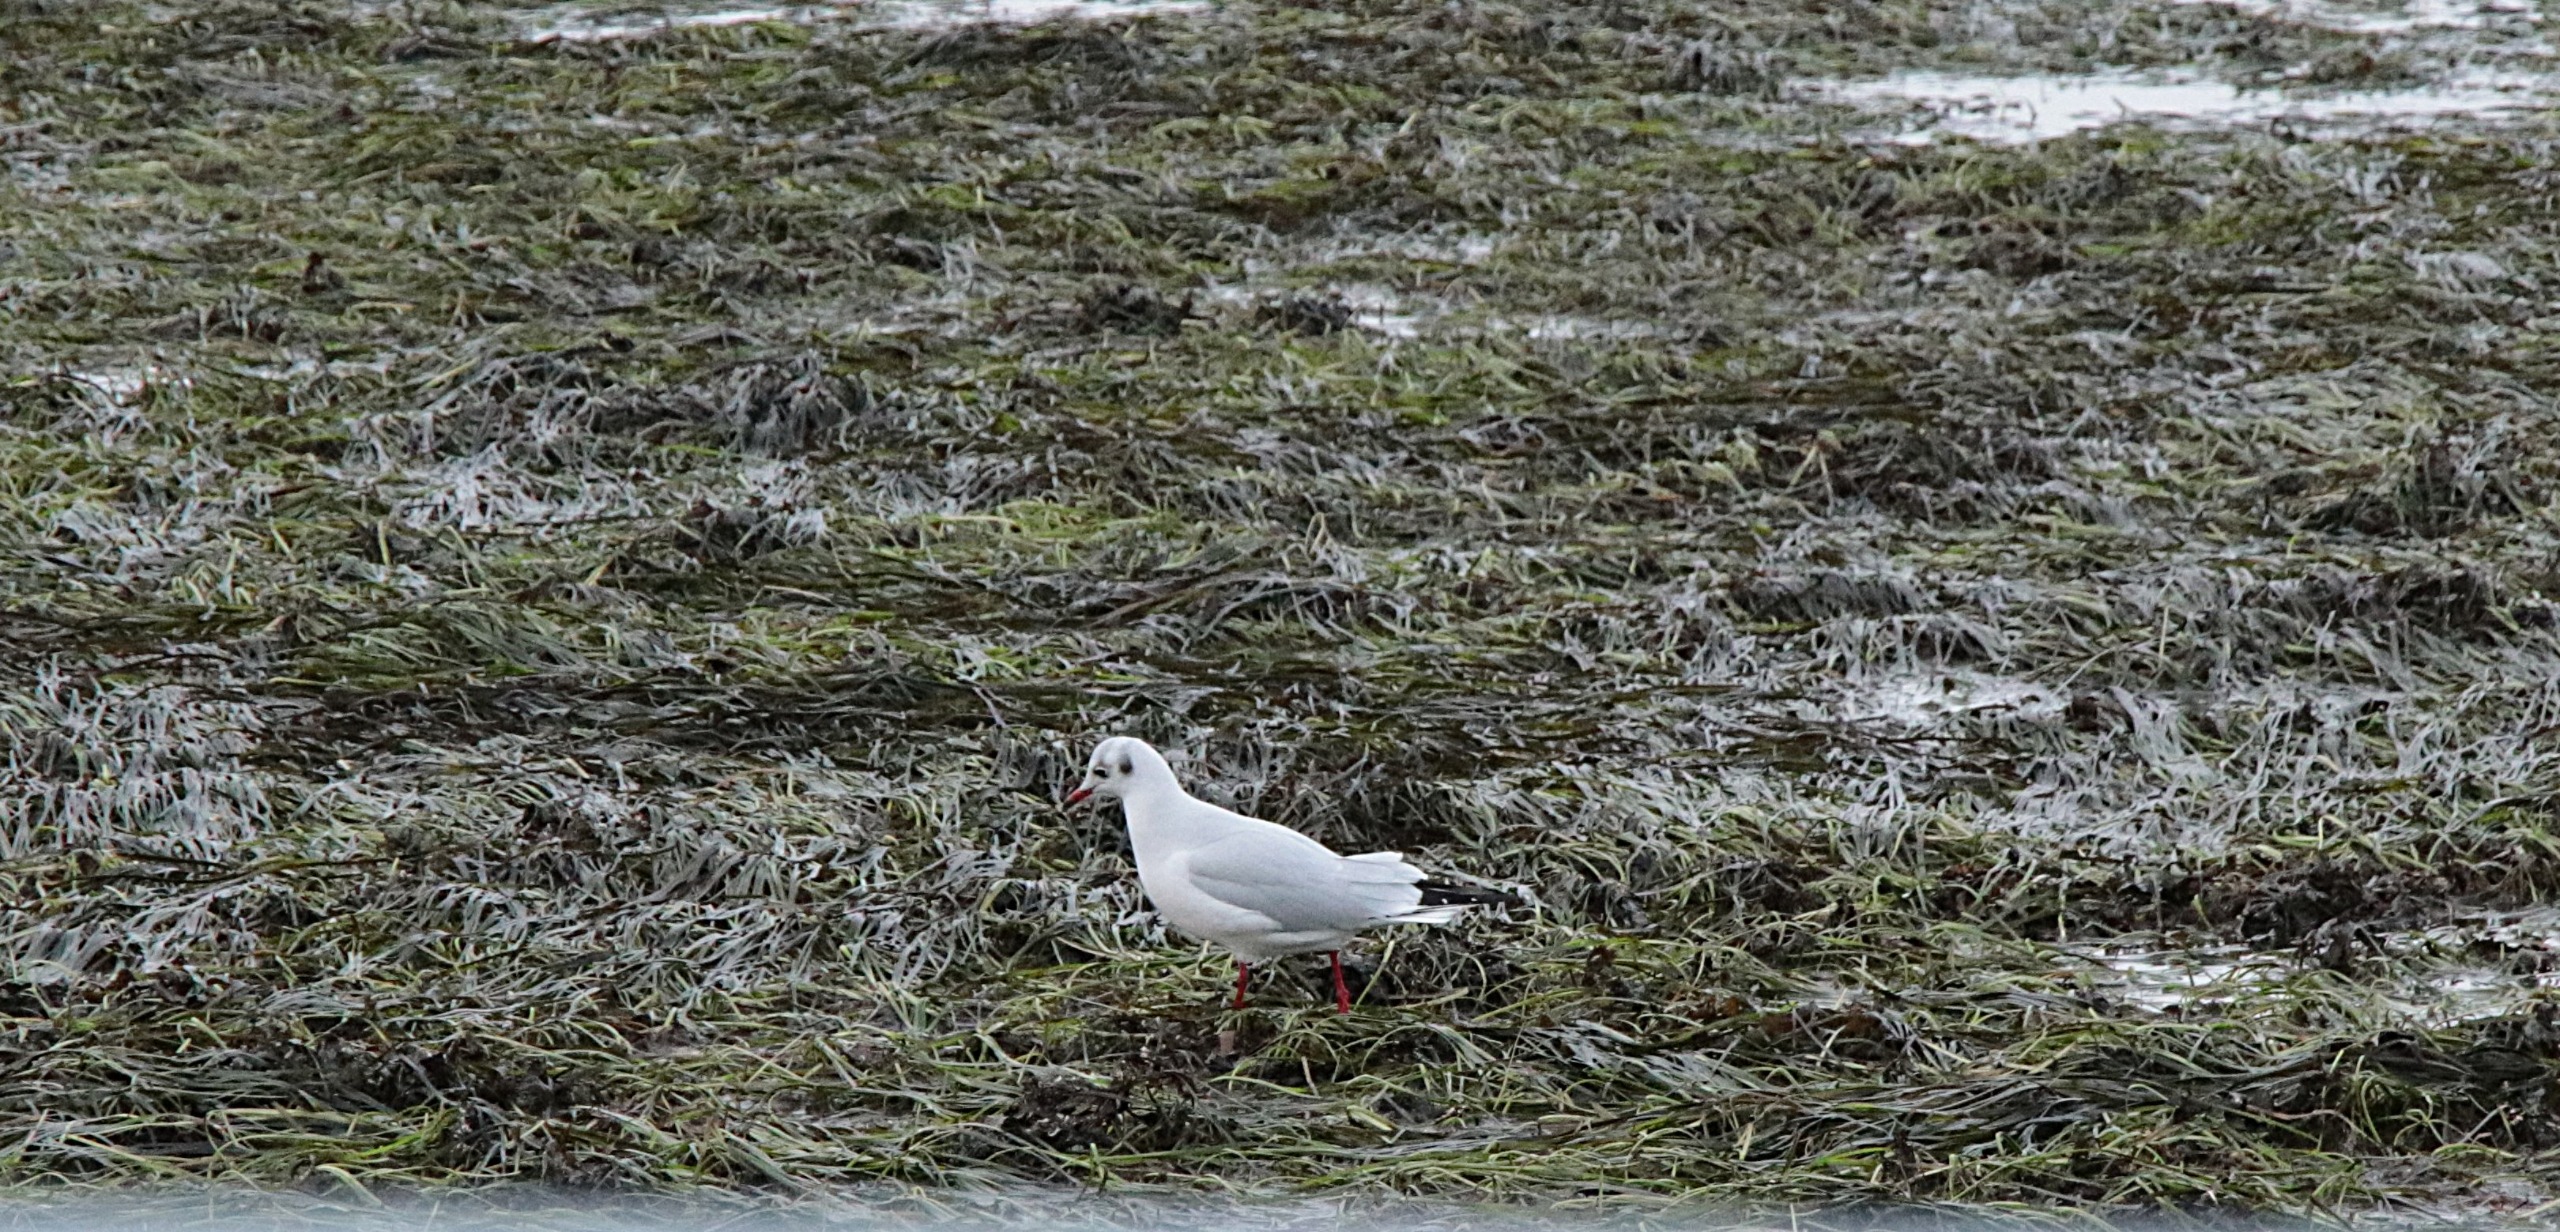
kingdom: Animalia
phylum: Chordata
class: Aves
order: Charadriiformes
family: Laridae
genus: Chroicocephalus
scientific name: Chroicocephalus ridibundus
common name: Hættemåge
